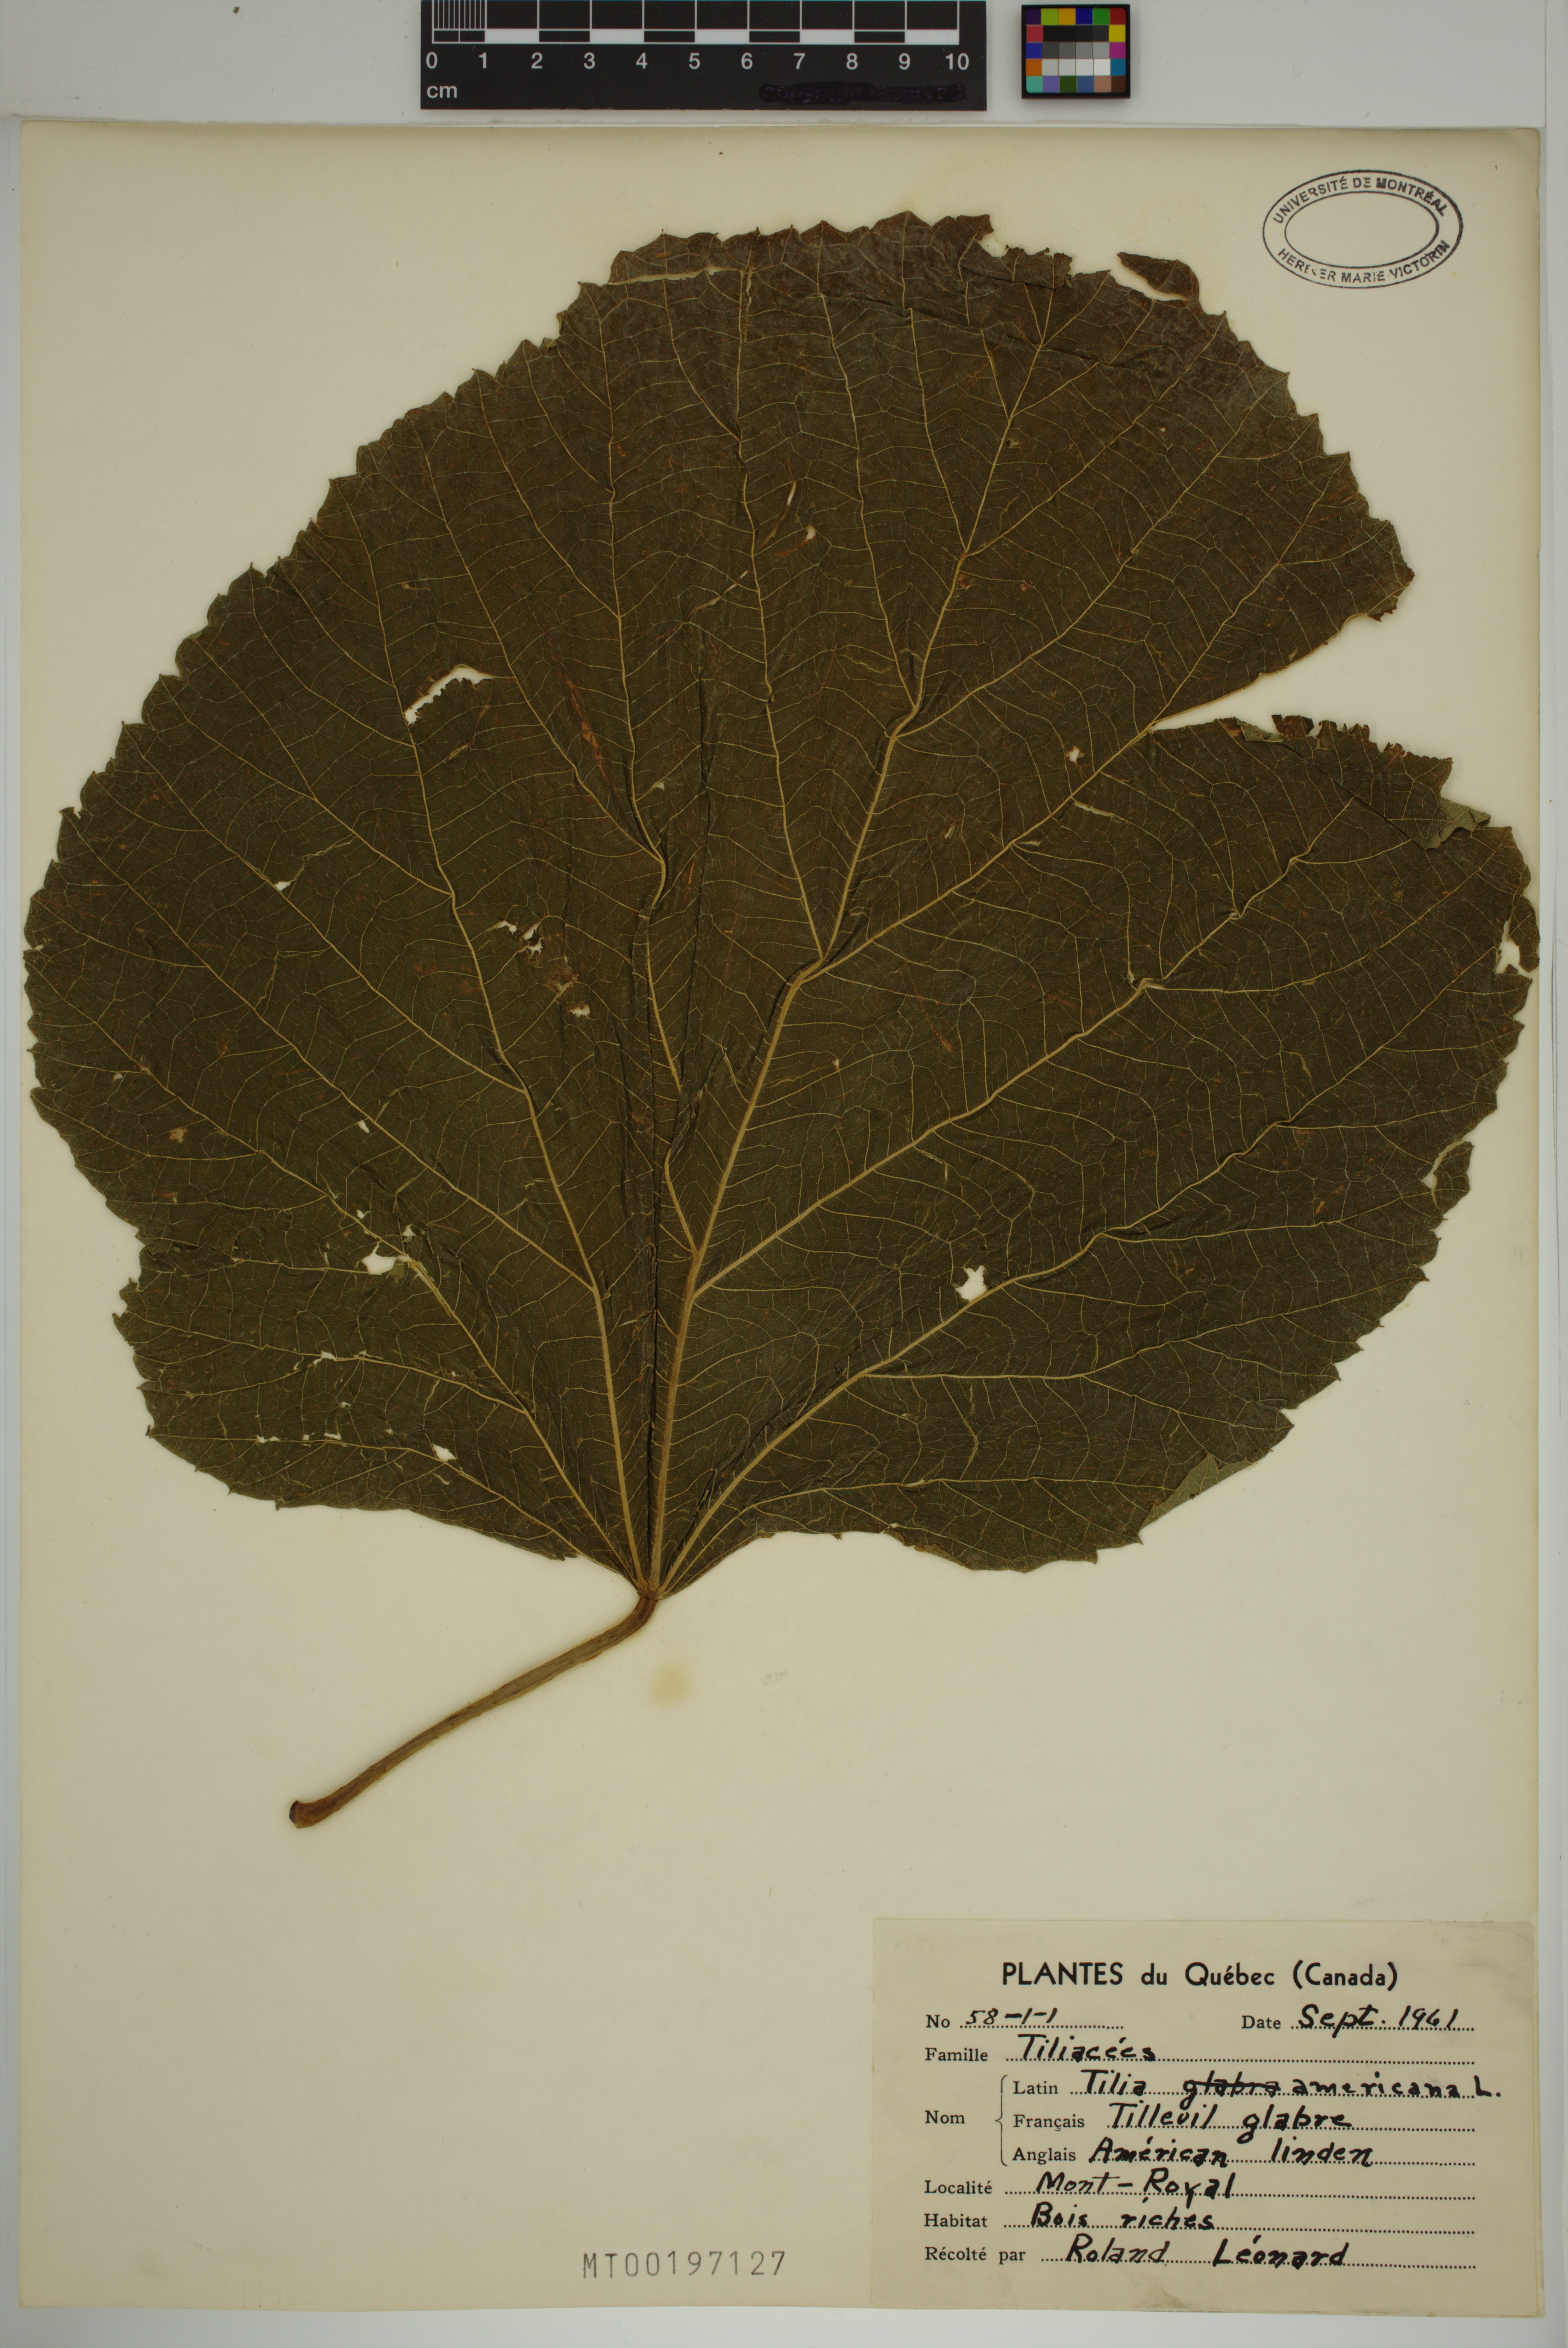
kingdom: Plantae
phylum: Tracheophyta
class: Magnoliopsida
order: Malvales
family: Malvaceae
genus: Tilia
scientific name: Tilia americana
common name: Basswood
